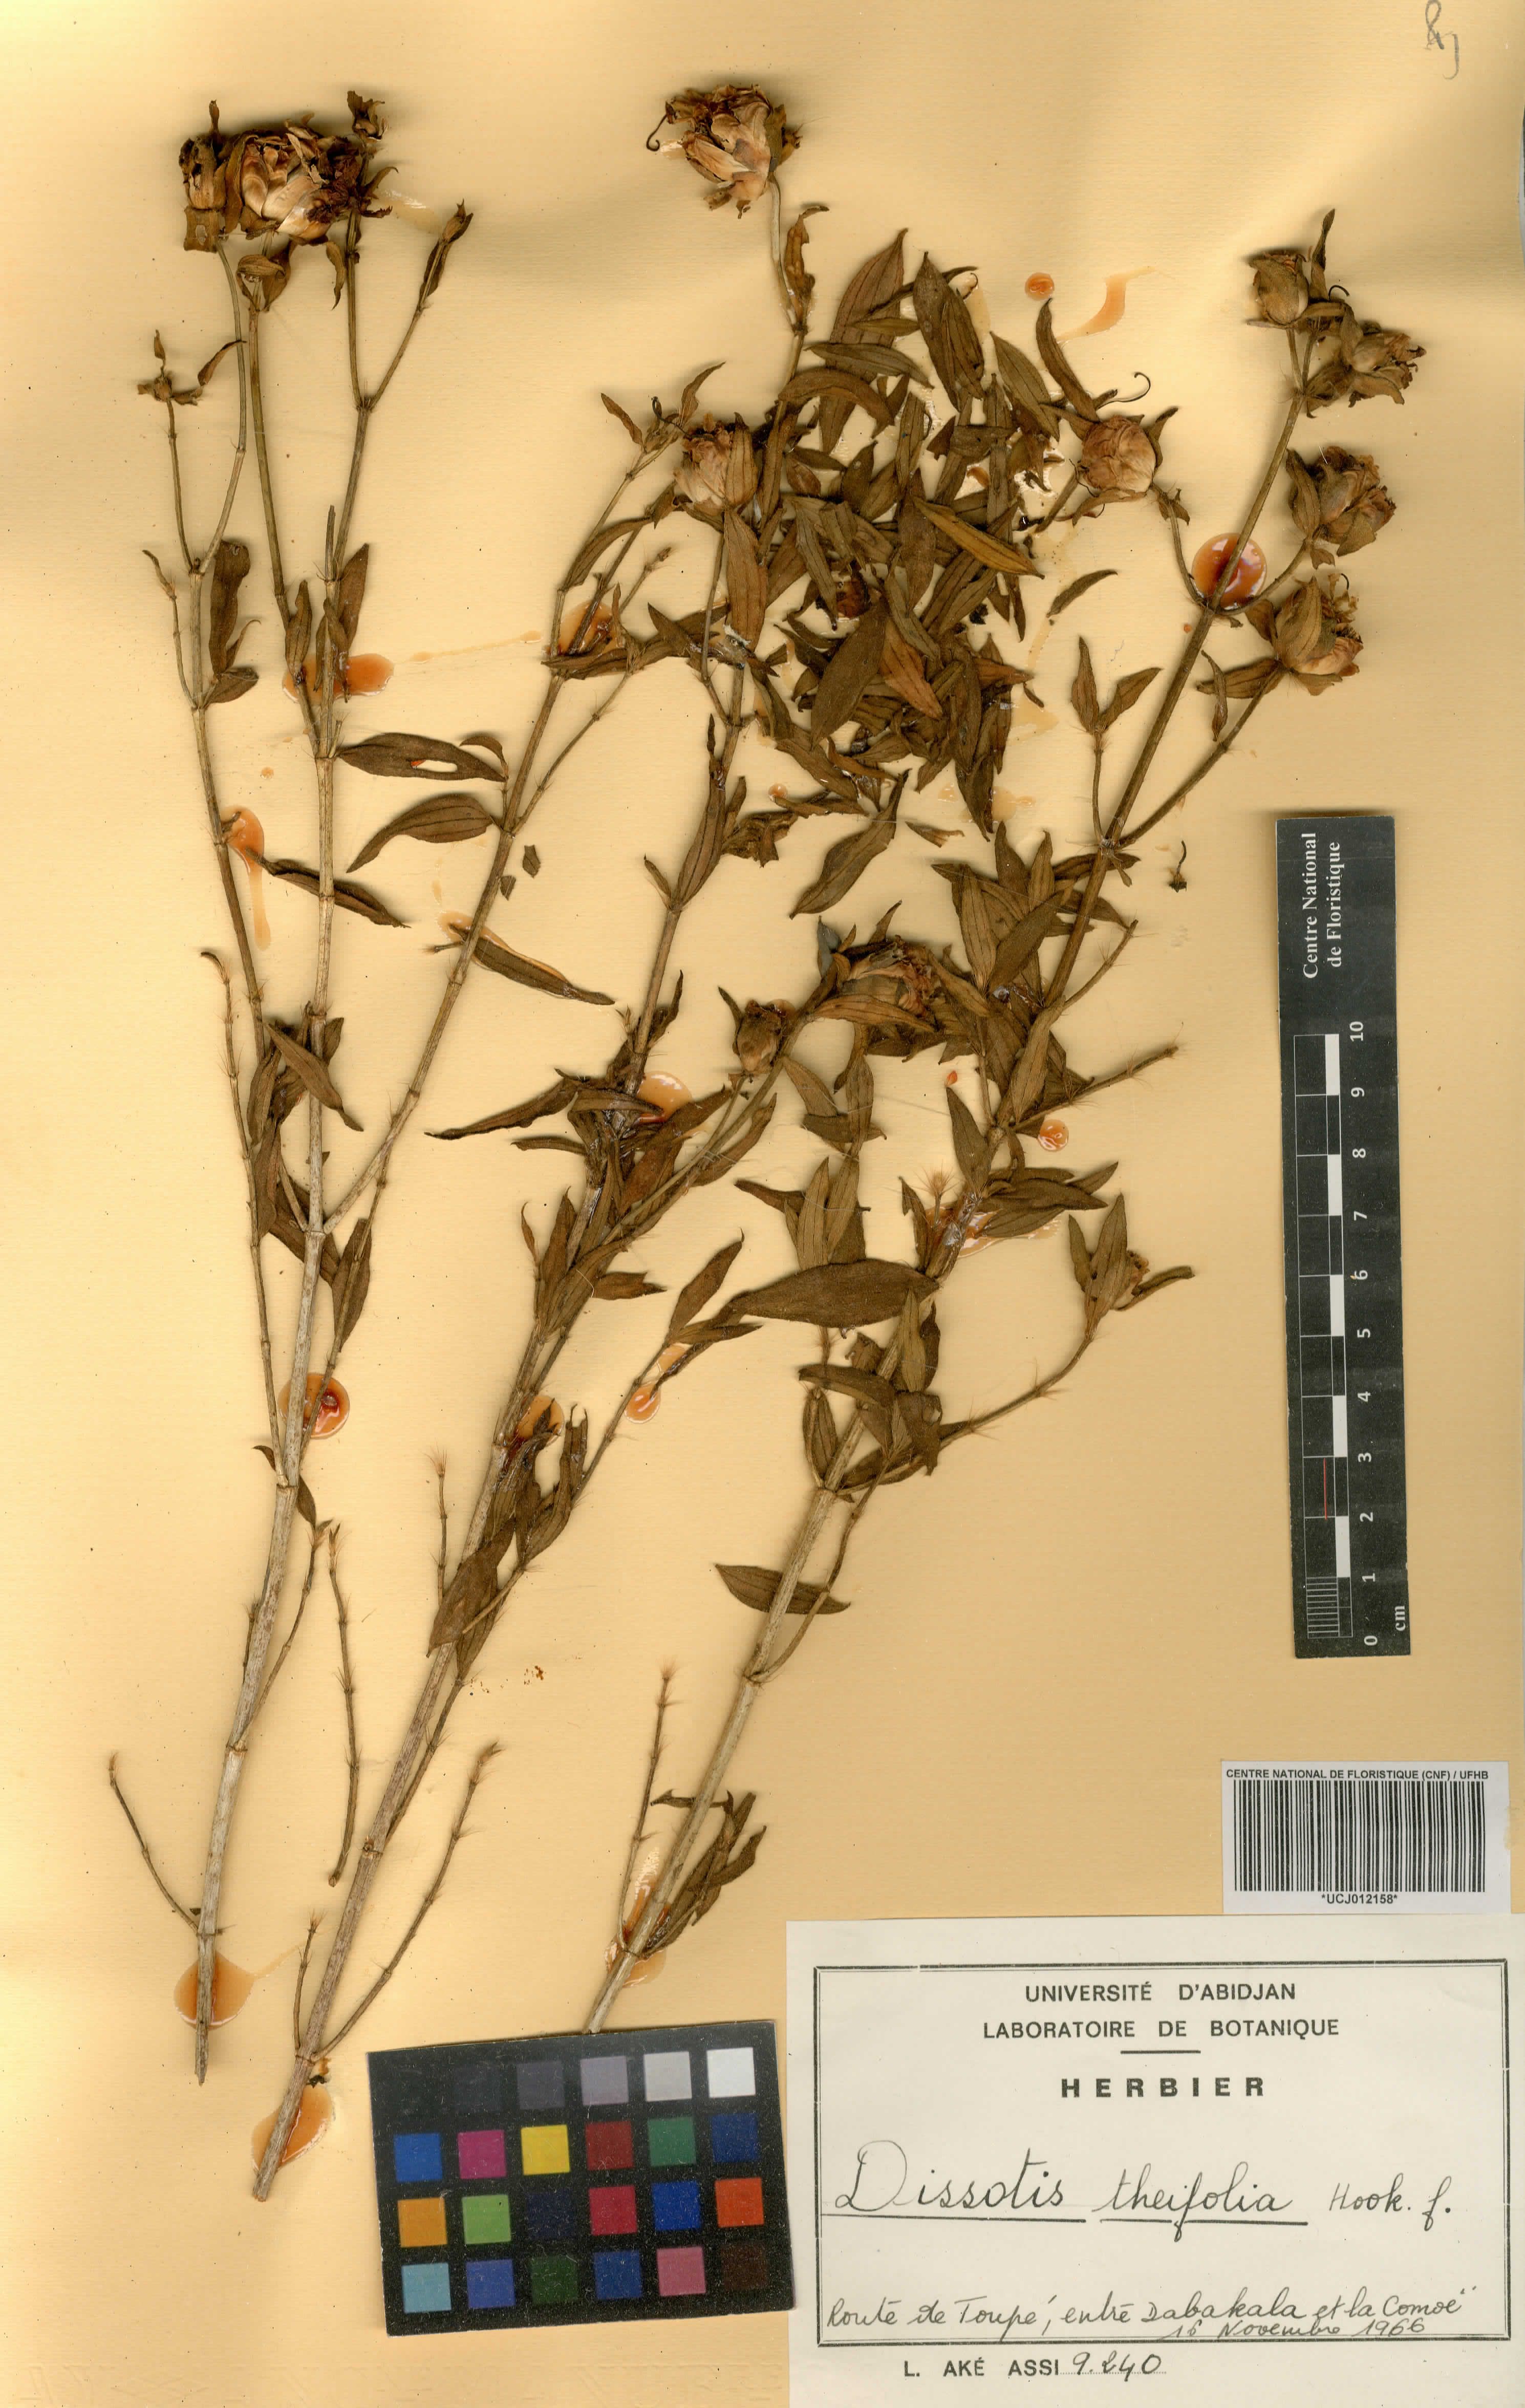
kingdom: Plantae
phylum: Tracheophyta
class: Magnoliopsida
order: Myrtales
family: Melastomataceae
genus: Melastomastrum
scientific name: Melastomastrum theifolium
